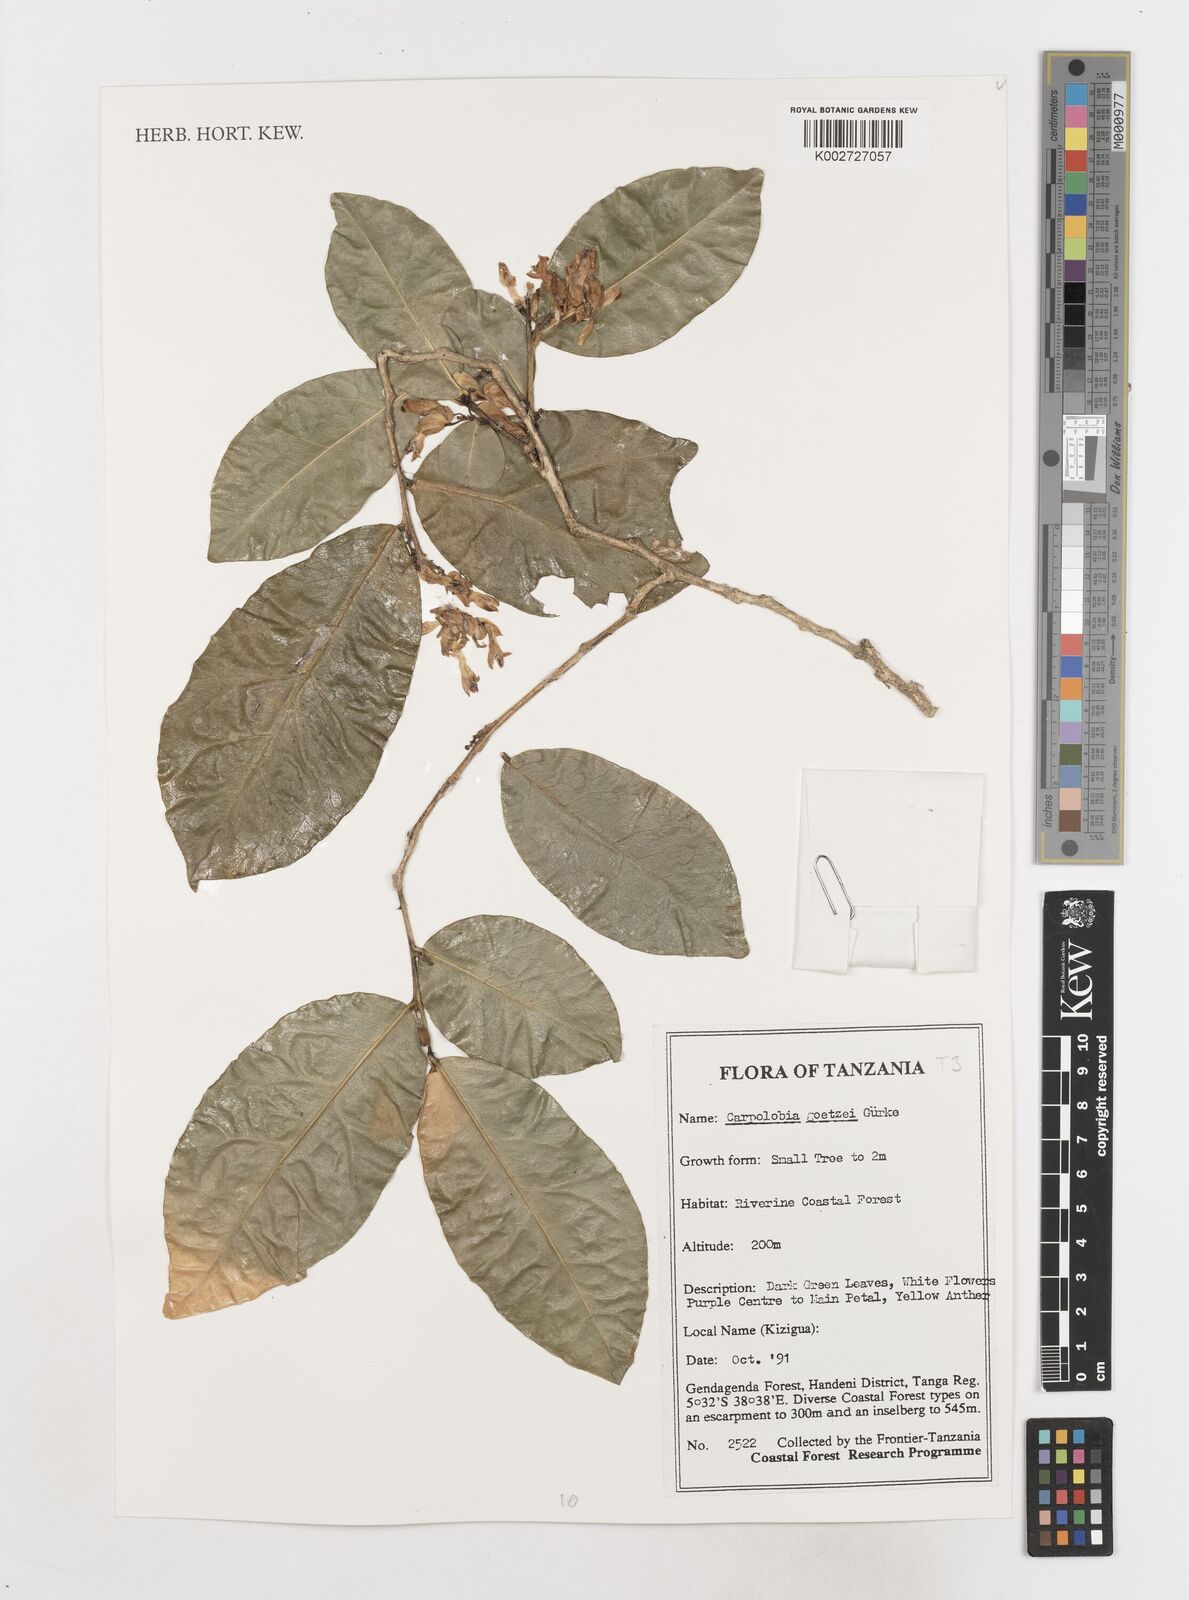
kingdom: Plantae
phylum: Tracheophyta
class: Magnoliopsida
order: Fabales
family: Polygalaceae
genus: Carpolobia
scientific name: Carpolobia goetzei
